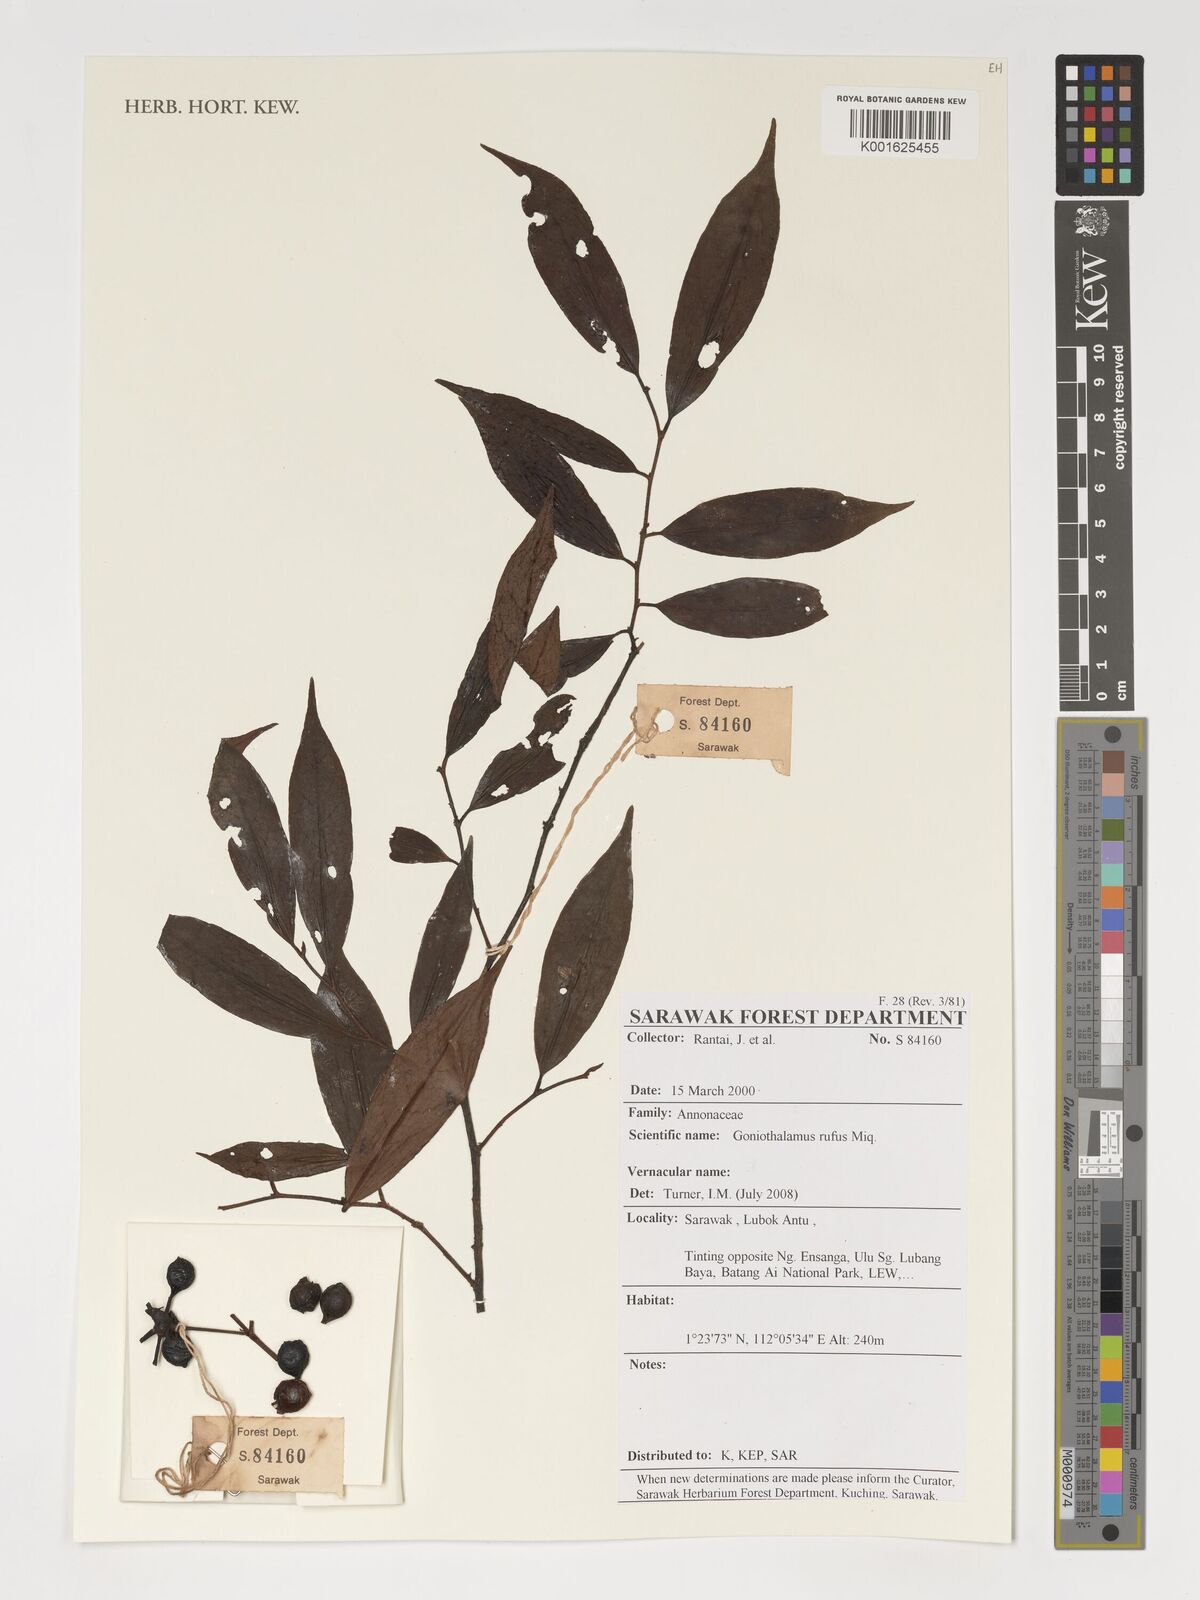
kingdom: Plantae
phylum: Tracheophyta
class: Magnoliopsida
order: Magnoliales
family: Annonaceae
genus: Goniothalamus
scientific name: Goniothalamus rufus
